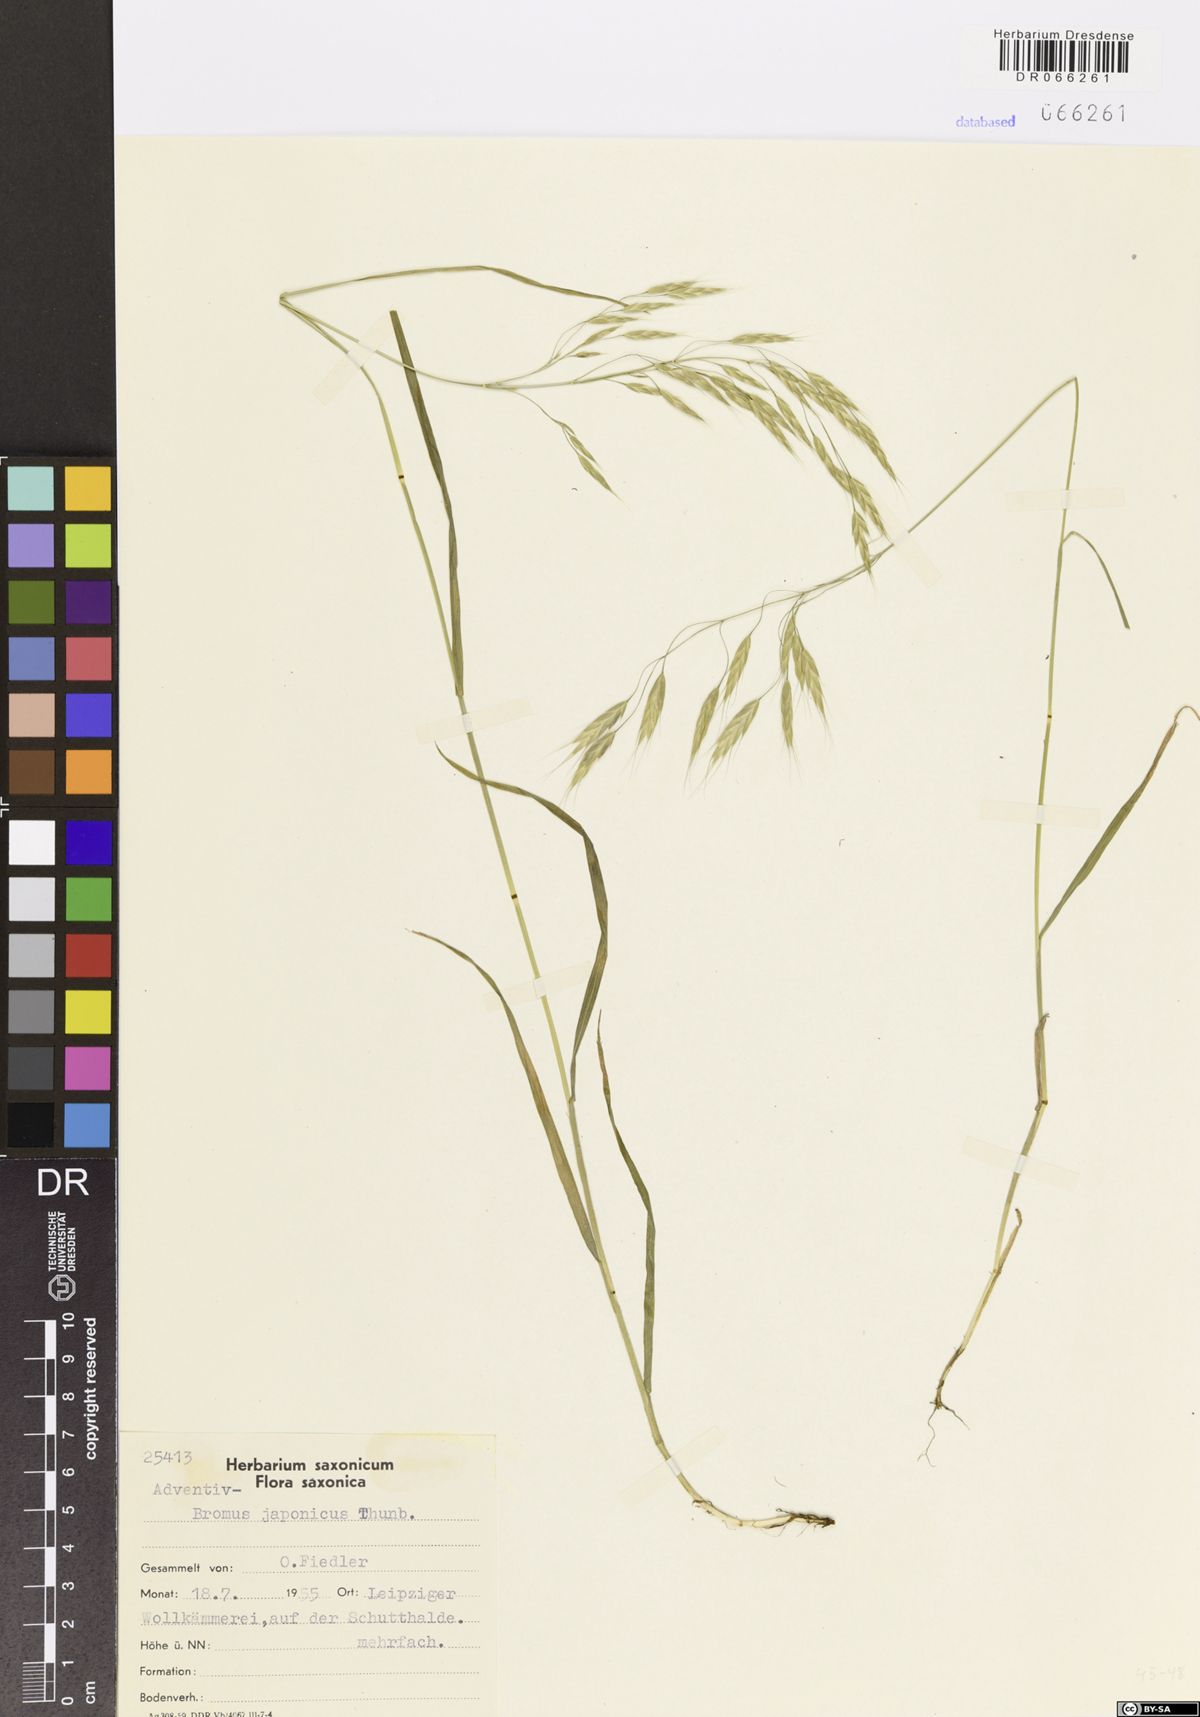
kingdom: Plantae
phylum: Tracheophyta
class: Liliopsida
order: Poales
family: Poaceae
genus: Bromus
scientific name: Bromus japonicus
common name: Japanese brome
